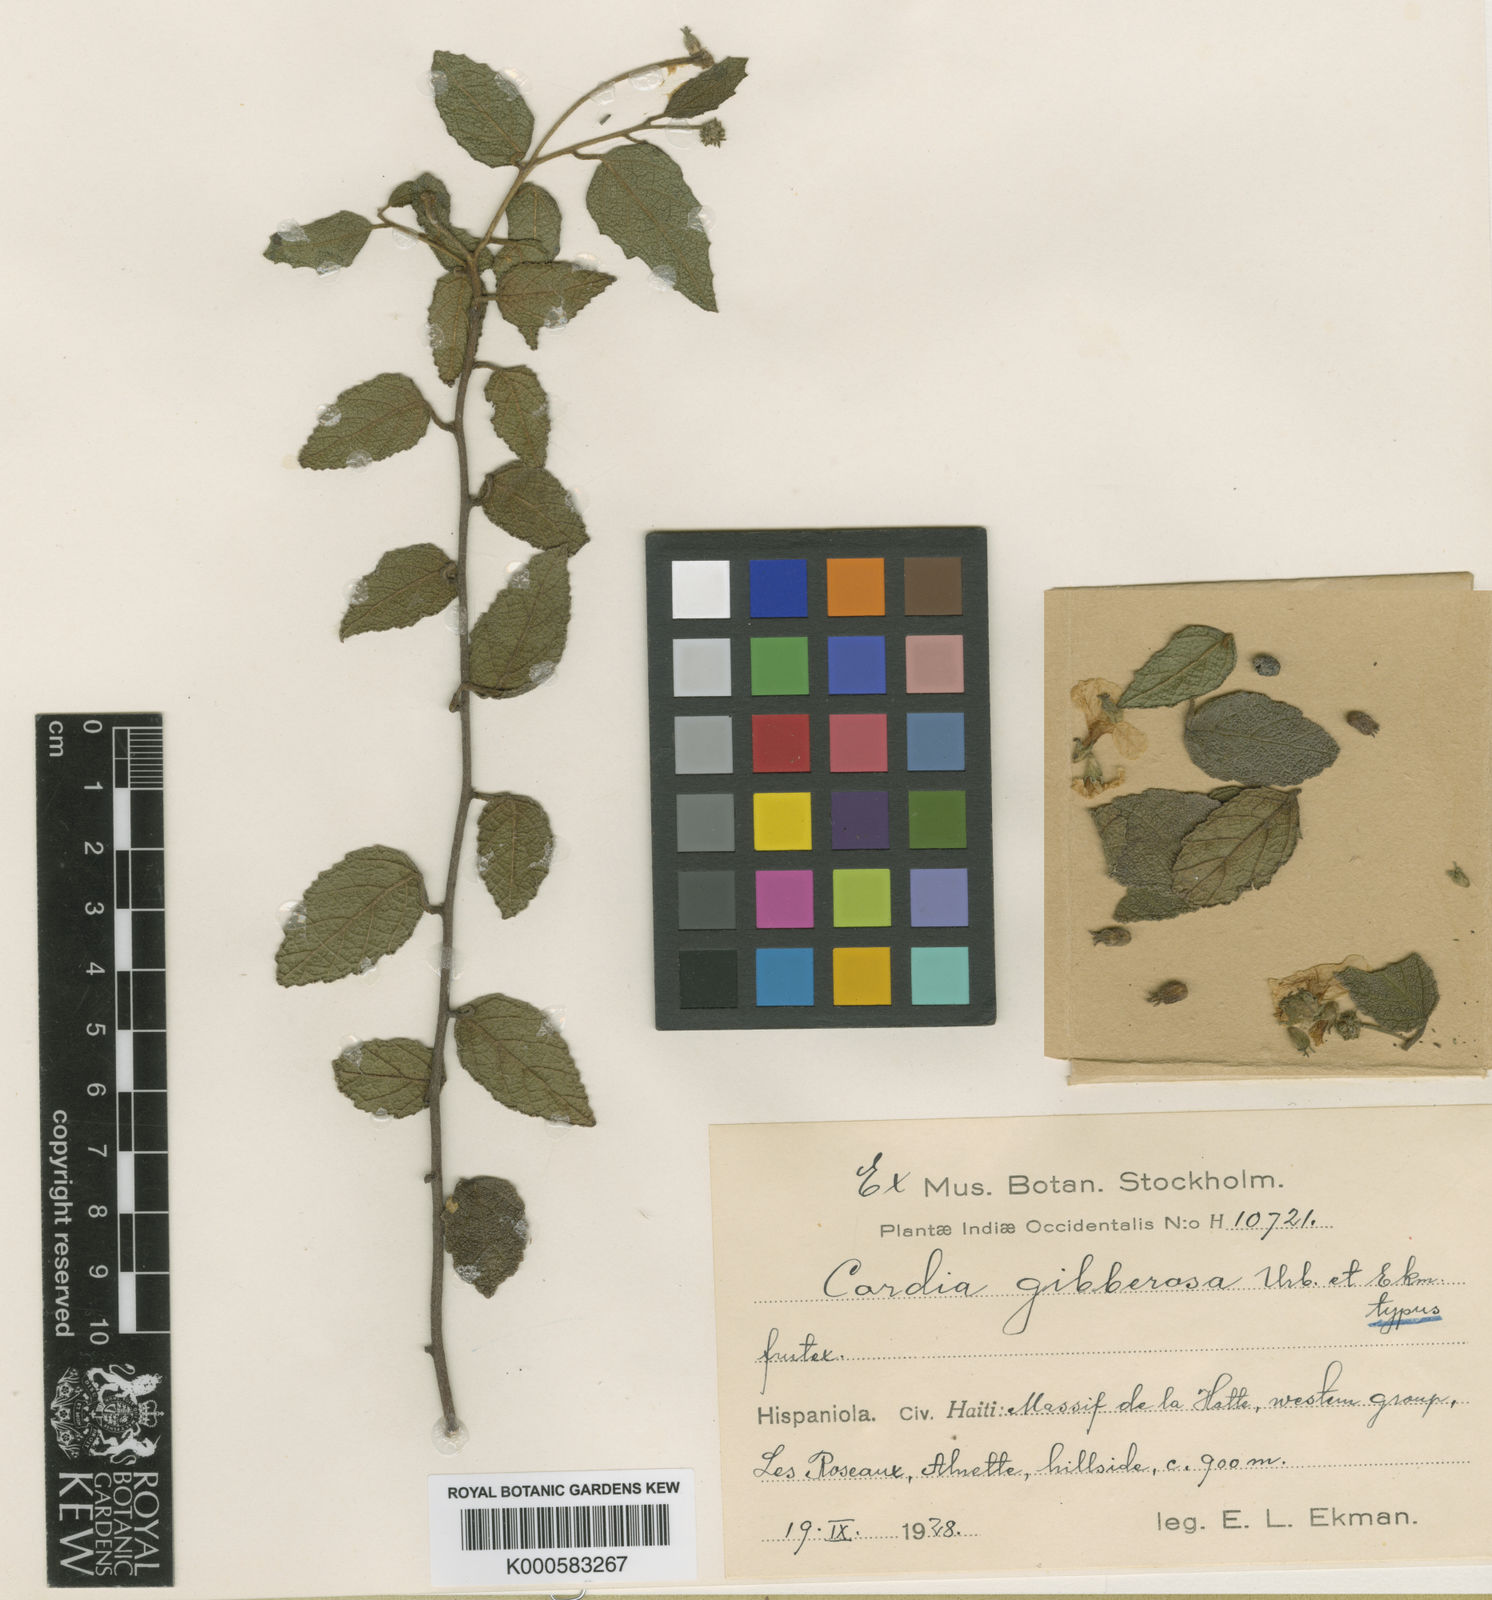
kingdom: Plantae
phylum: Tracheophyta
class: Magnoliopsida
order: Boraginales
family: Cordiaceae
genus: Varronia
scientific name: Varronia gibberosa
